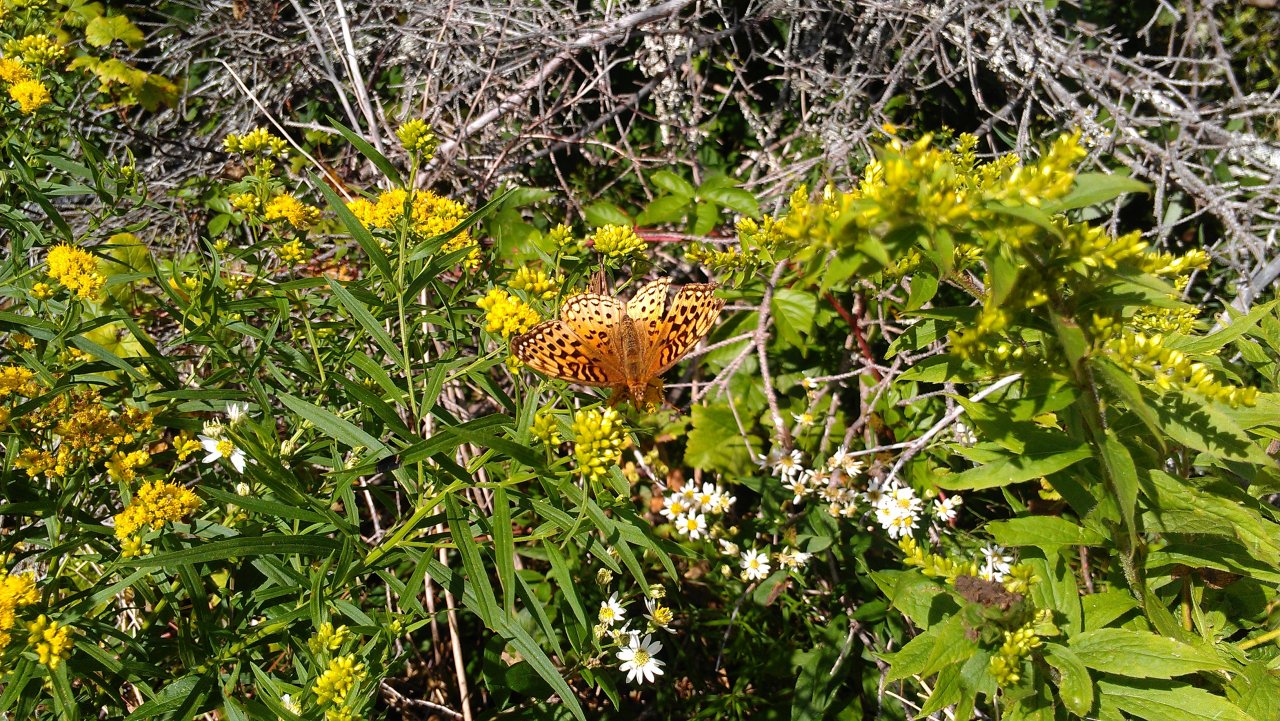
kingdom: Animalia
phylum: Arthropoda
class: Insecta
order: Lepidoptera
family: Nymphalidae
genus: Speyeria
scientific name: Speyeria cybele
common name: Great Spangled Fritillary
